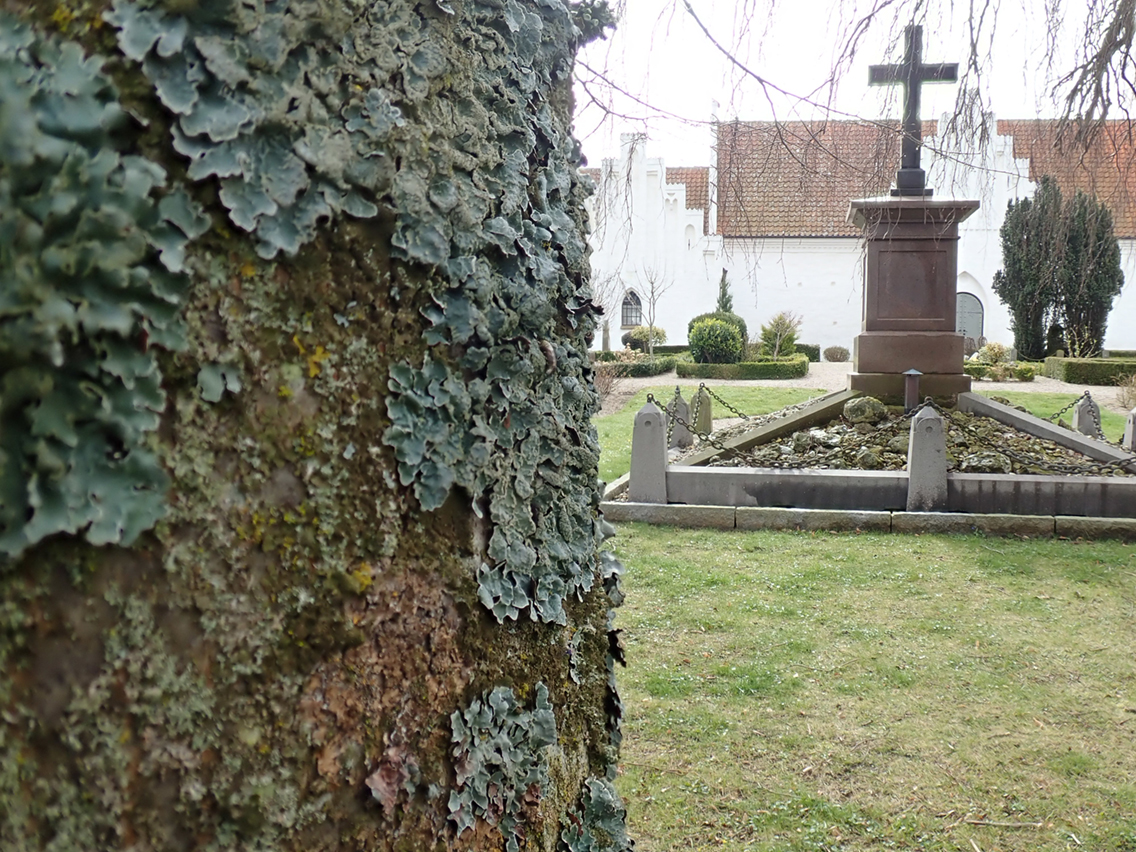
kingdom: Fungi
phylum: Ascomycota
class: Lecanoromycetes
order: Lecanorales
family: Parmeliaceae
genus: Parmelia
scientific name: Parmelia sulcata
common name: rynket skållav
